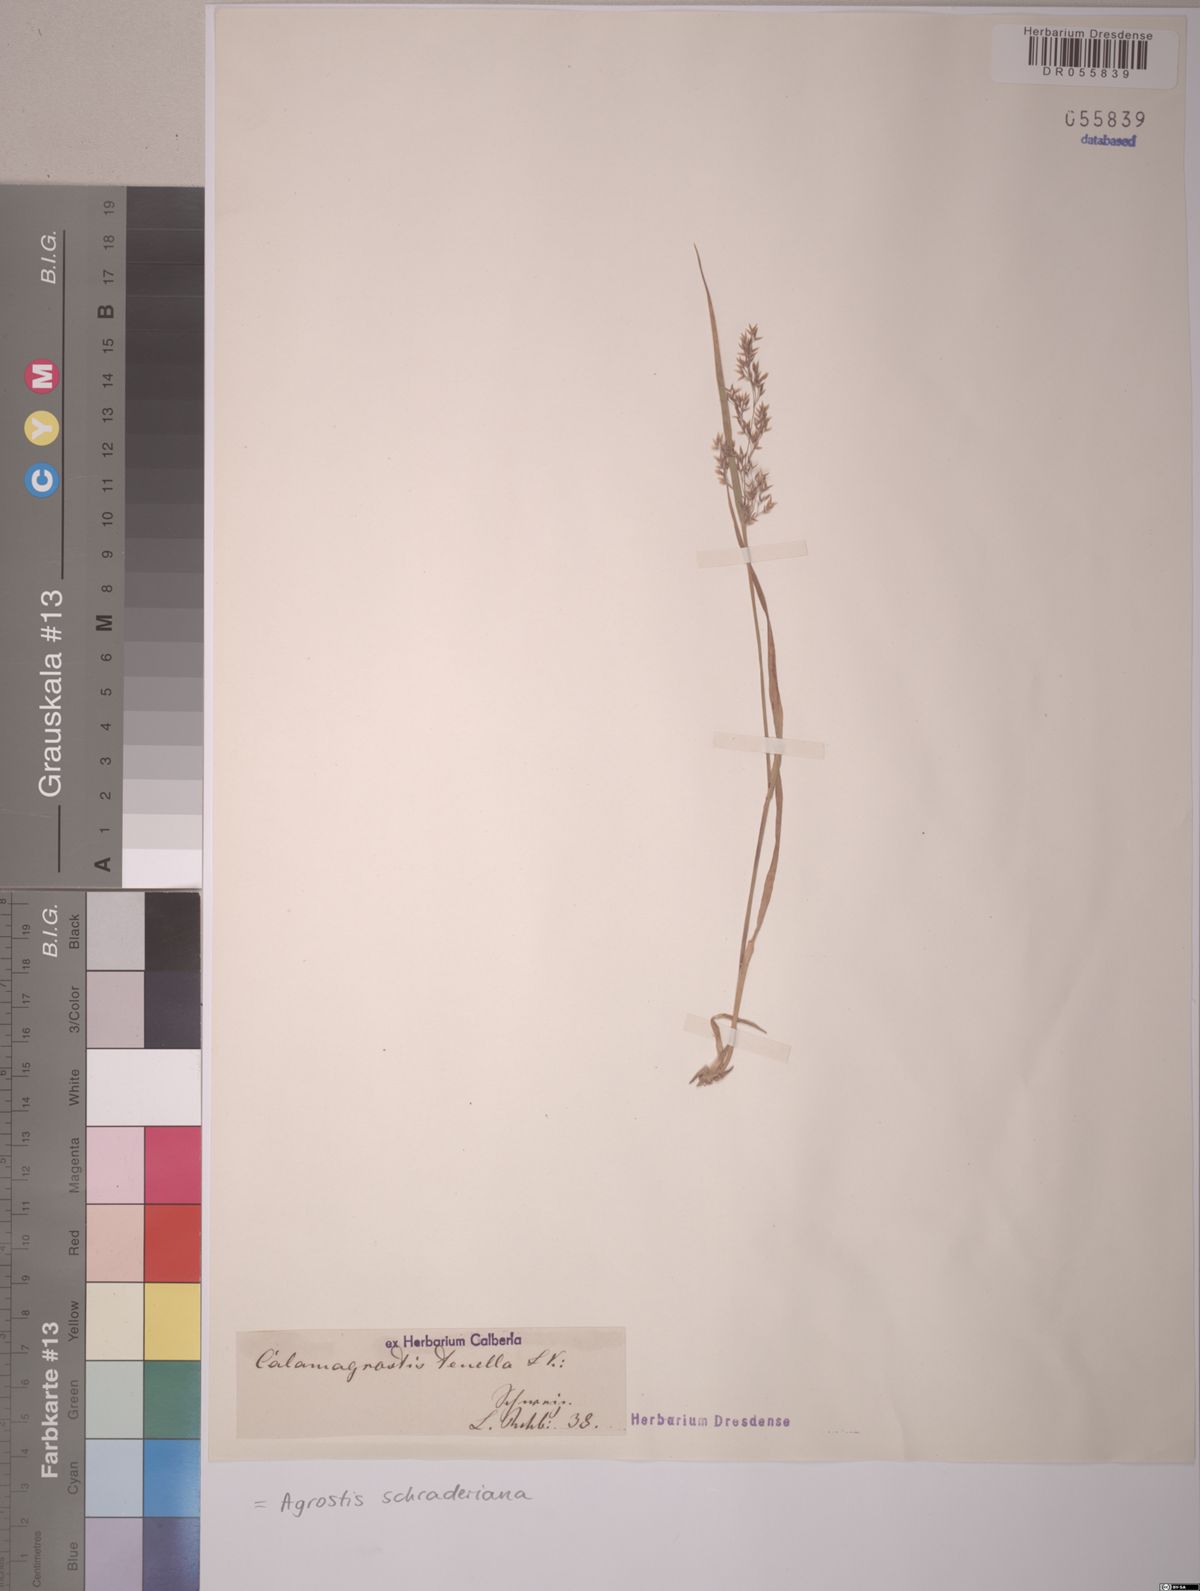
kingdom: Plantae
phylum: Tracheophyta
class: Liliopsida
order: Poales
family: Poaceae
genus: Agrostis
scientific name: Agrostis schraderiana
